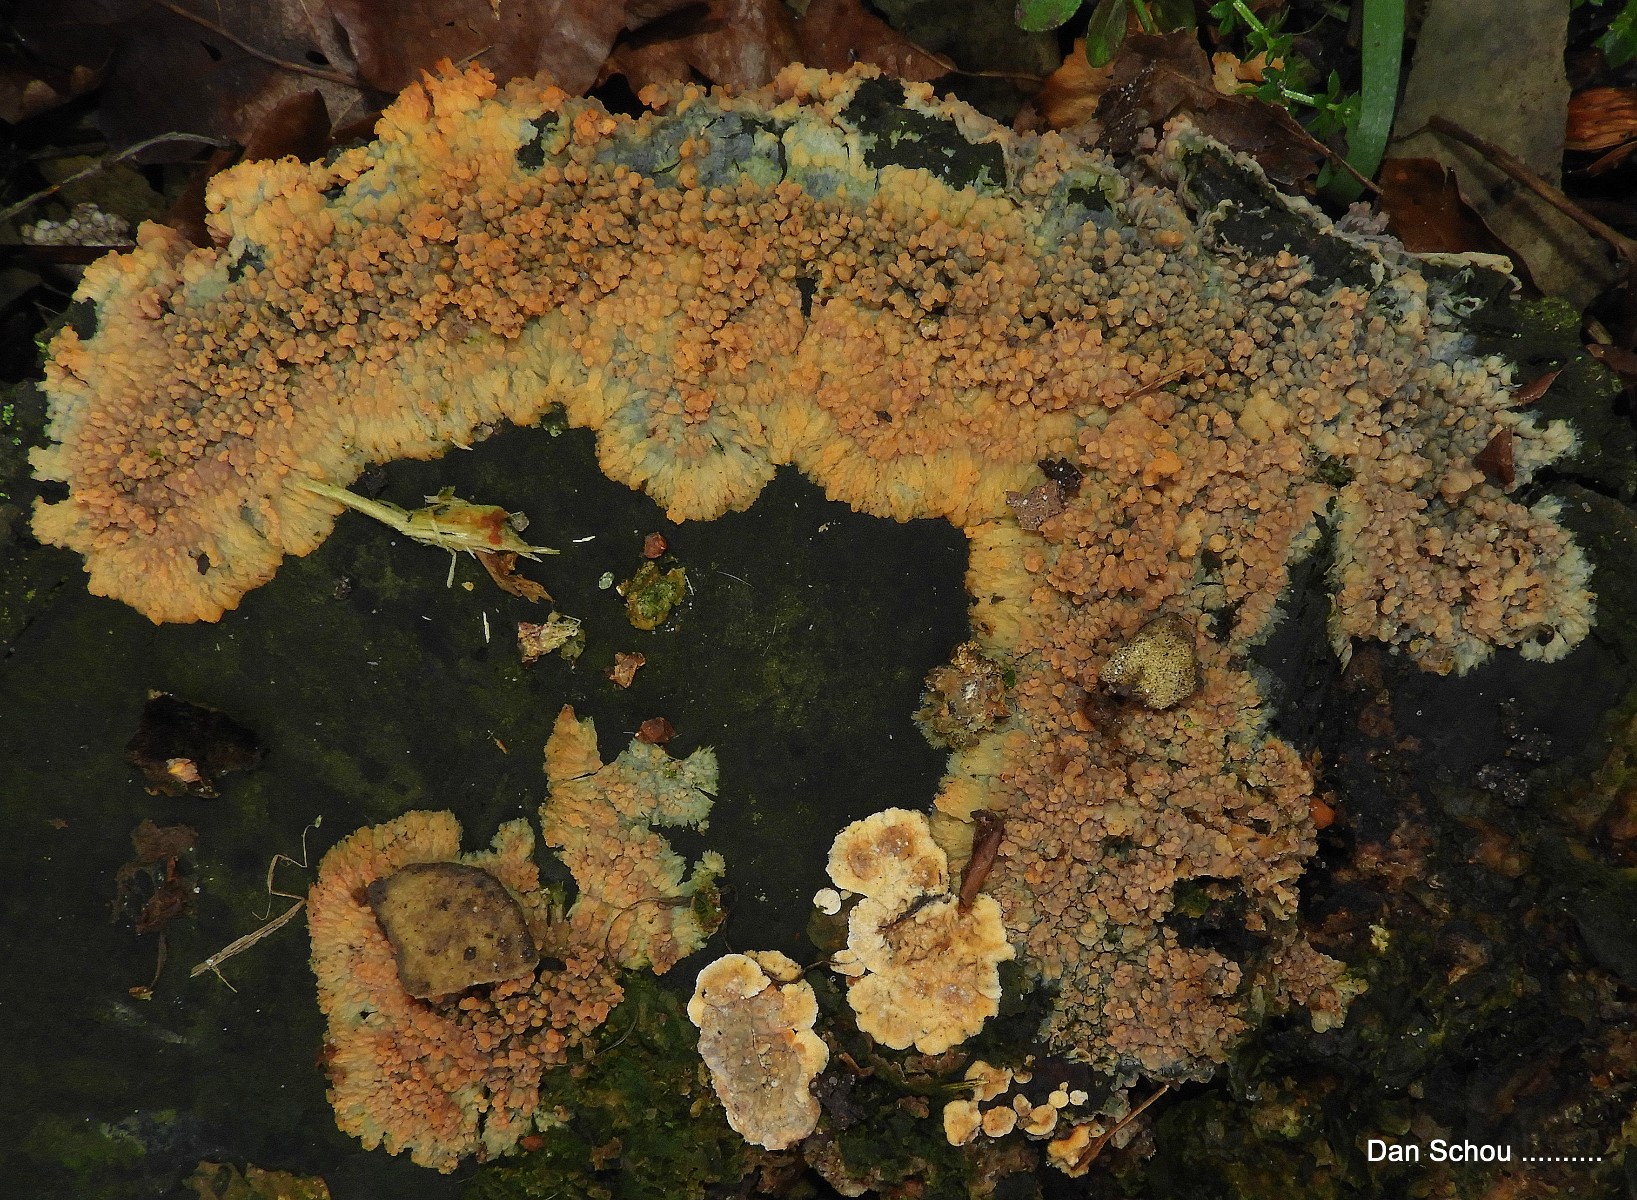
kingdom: Fungi
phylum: Basidiomycota
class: Agaricomycetes
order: Polyporales
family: Meruliaceae
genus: Phlebia
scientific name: Phlebia radiata
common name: stråle-åresvamp
